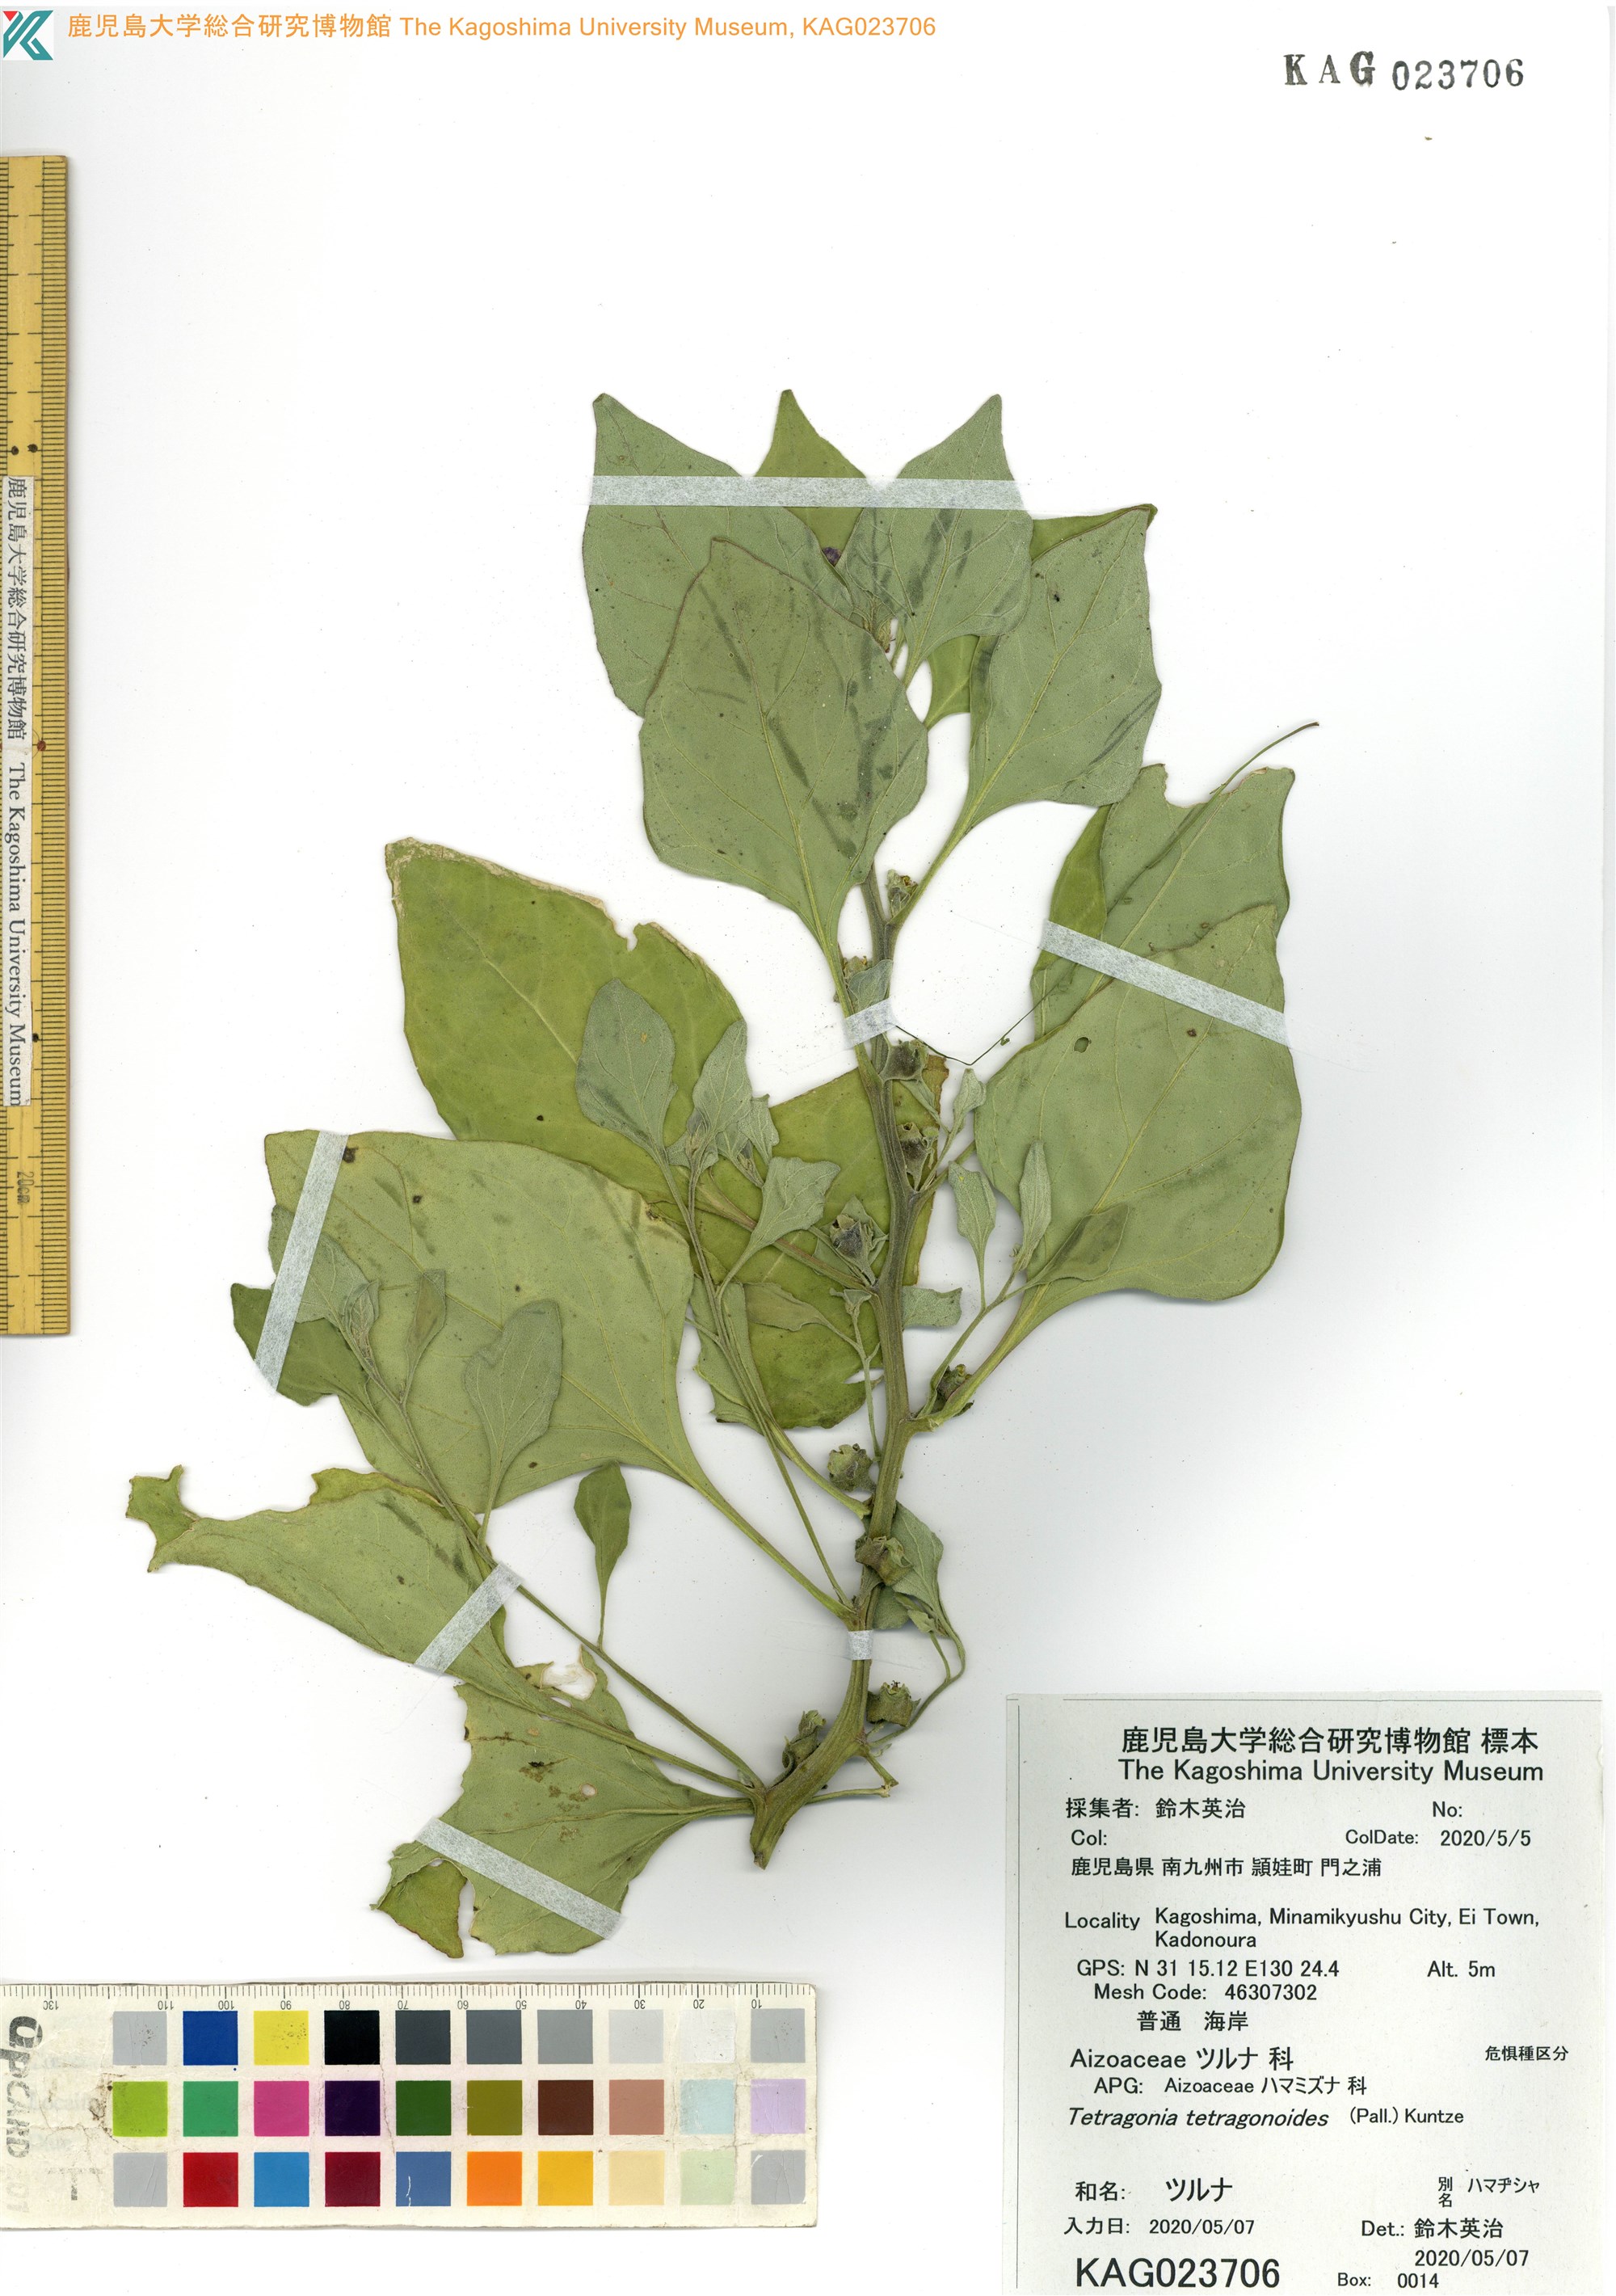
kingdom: Plantae
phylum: Tracheophyta
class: Magnoliopsida
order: Caryophyllales
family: Aizoaceae
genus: Tetragonia
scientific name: Tetragonia tetragonoides
